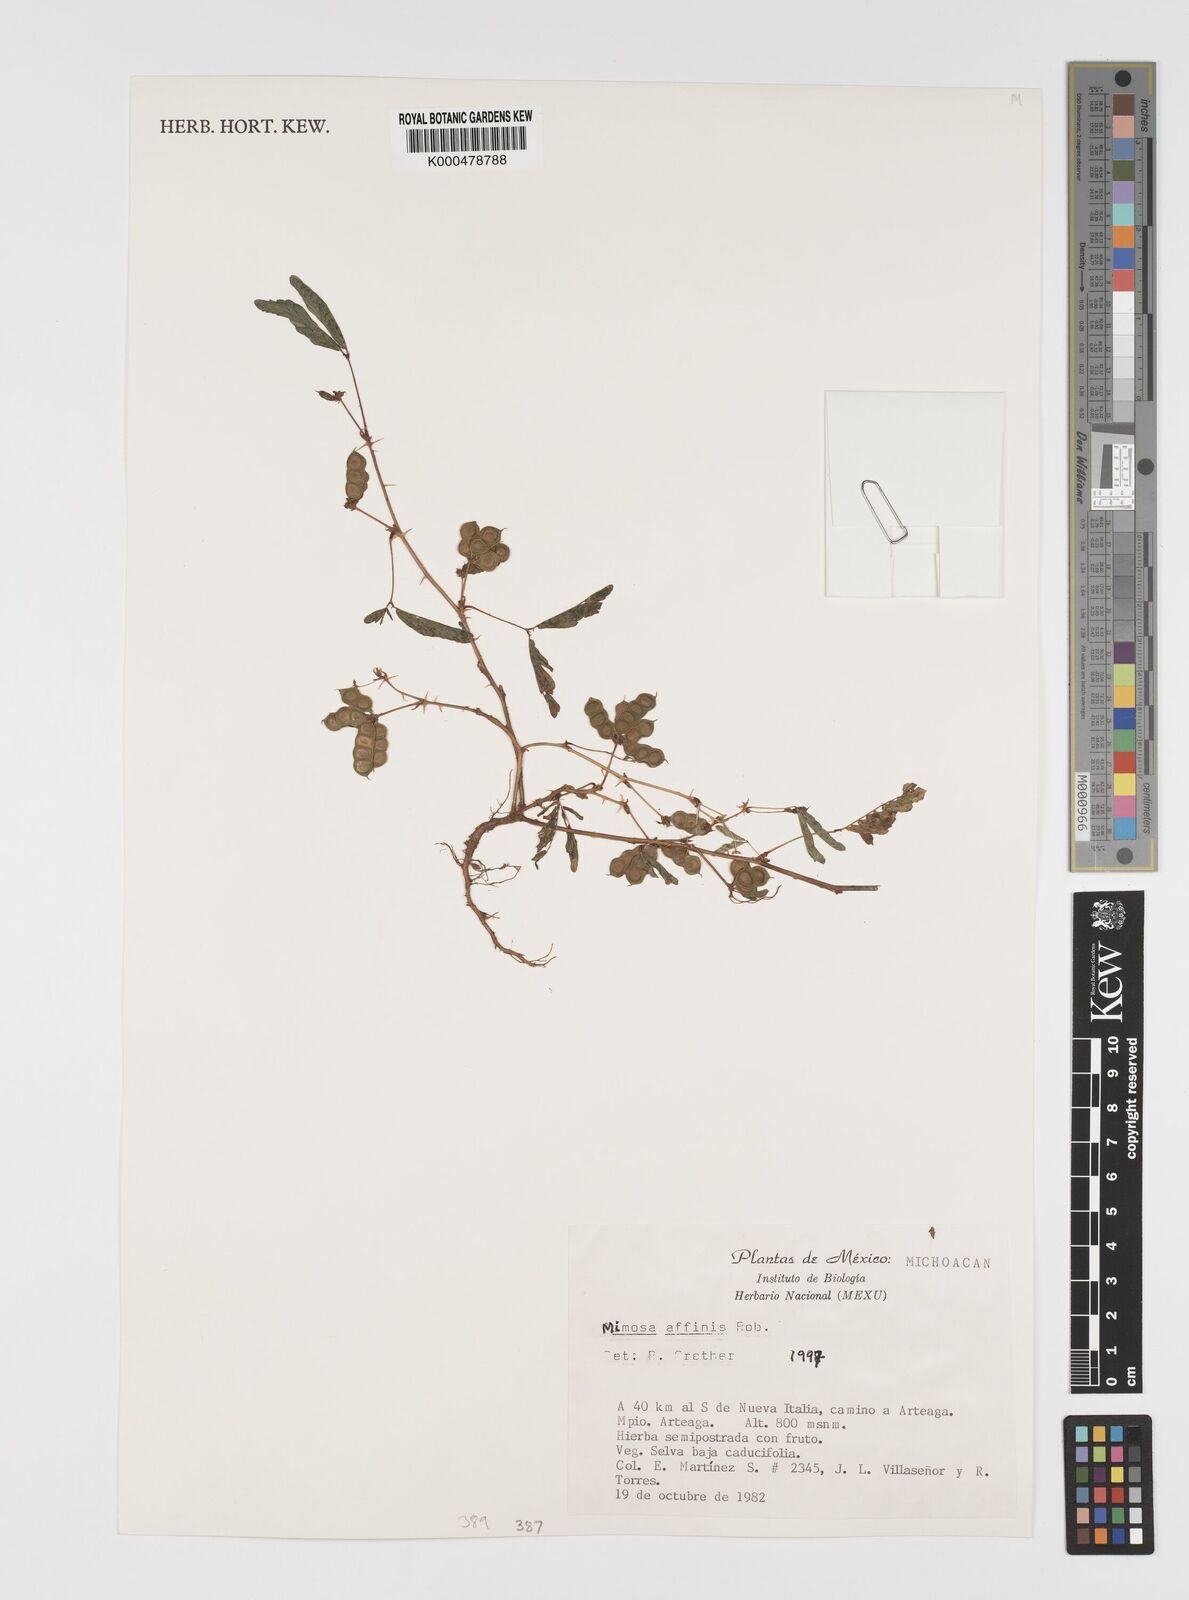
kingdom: Plantae
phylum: Tracheophyta
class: Magnoliopsida
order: Fabales
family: Fabaceae
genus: Mimosa
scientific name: Mimosa affinis
